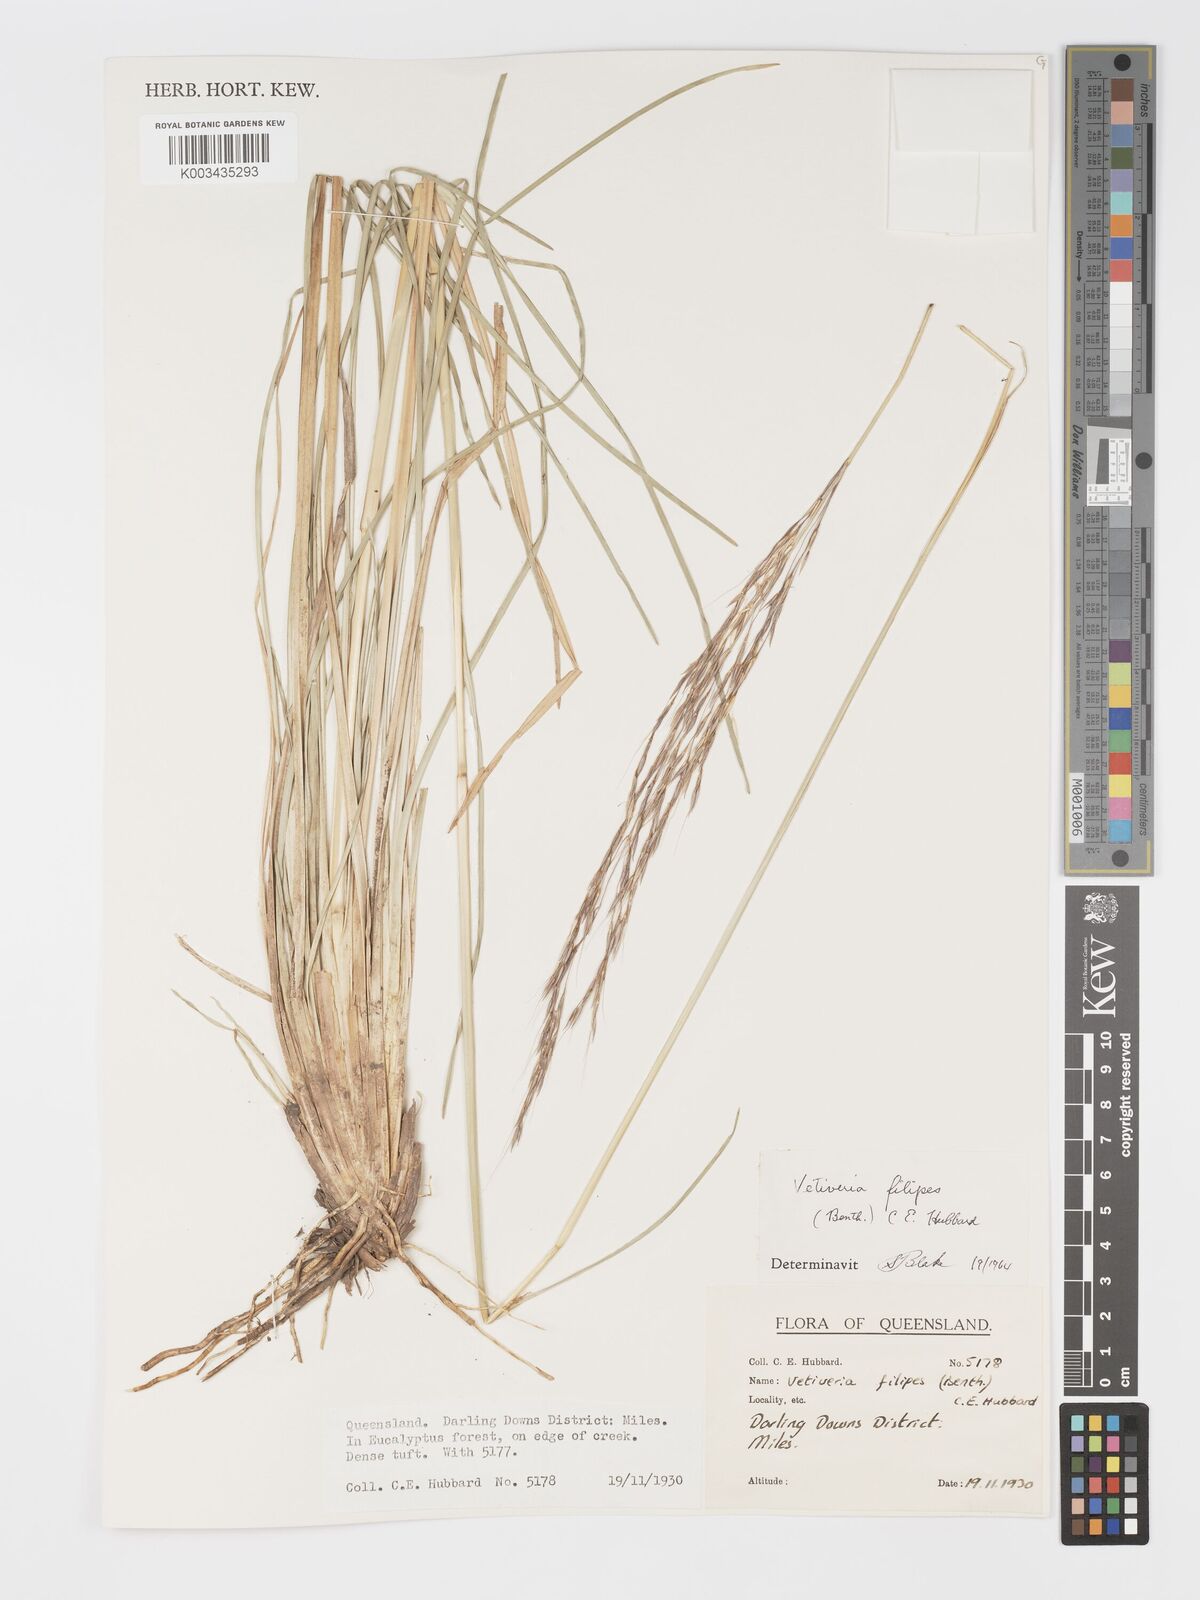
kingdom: Plantae
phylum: Tracheophyta
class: Liliopsida
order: Poales
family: Poaceae
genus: Chrysopogon
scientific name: Chrysopogon filipes
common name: Australian vetiver
